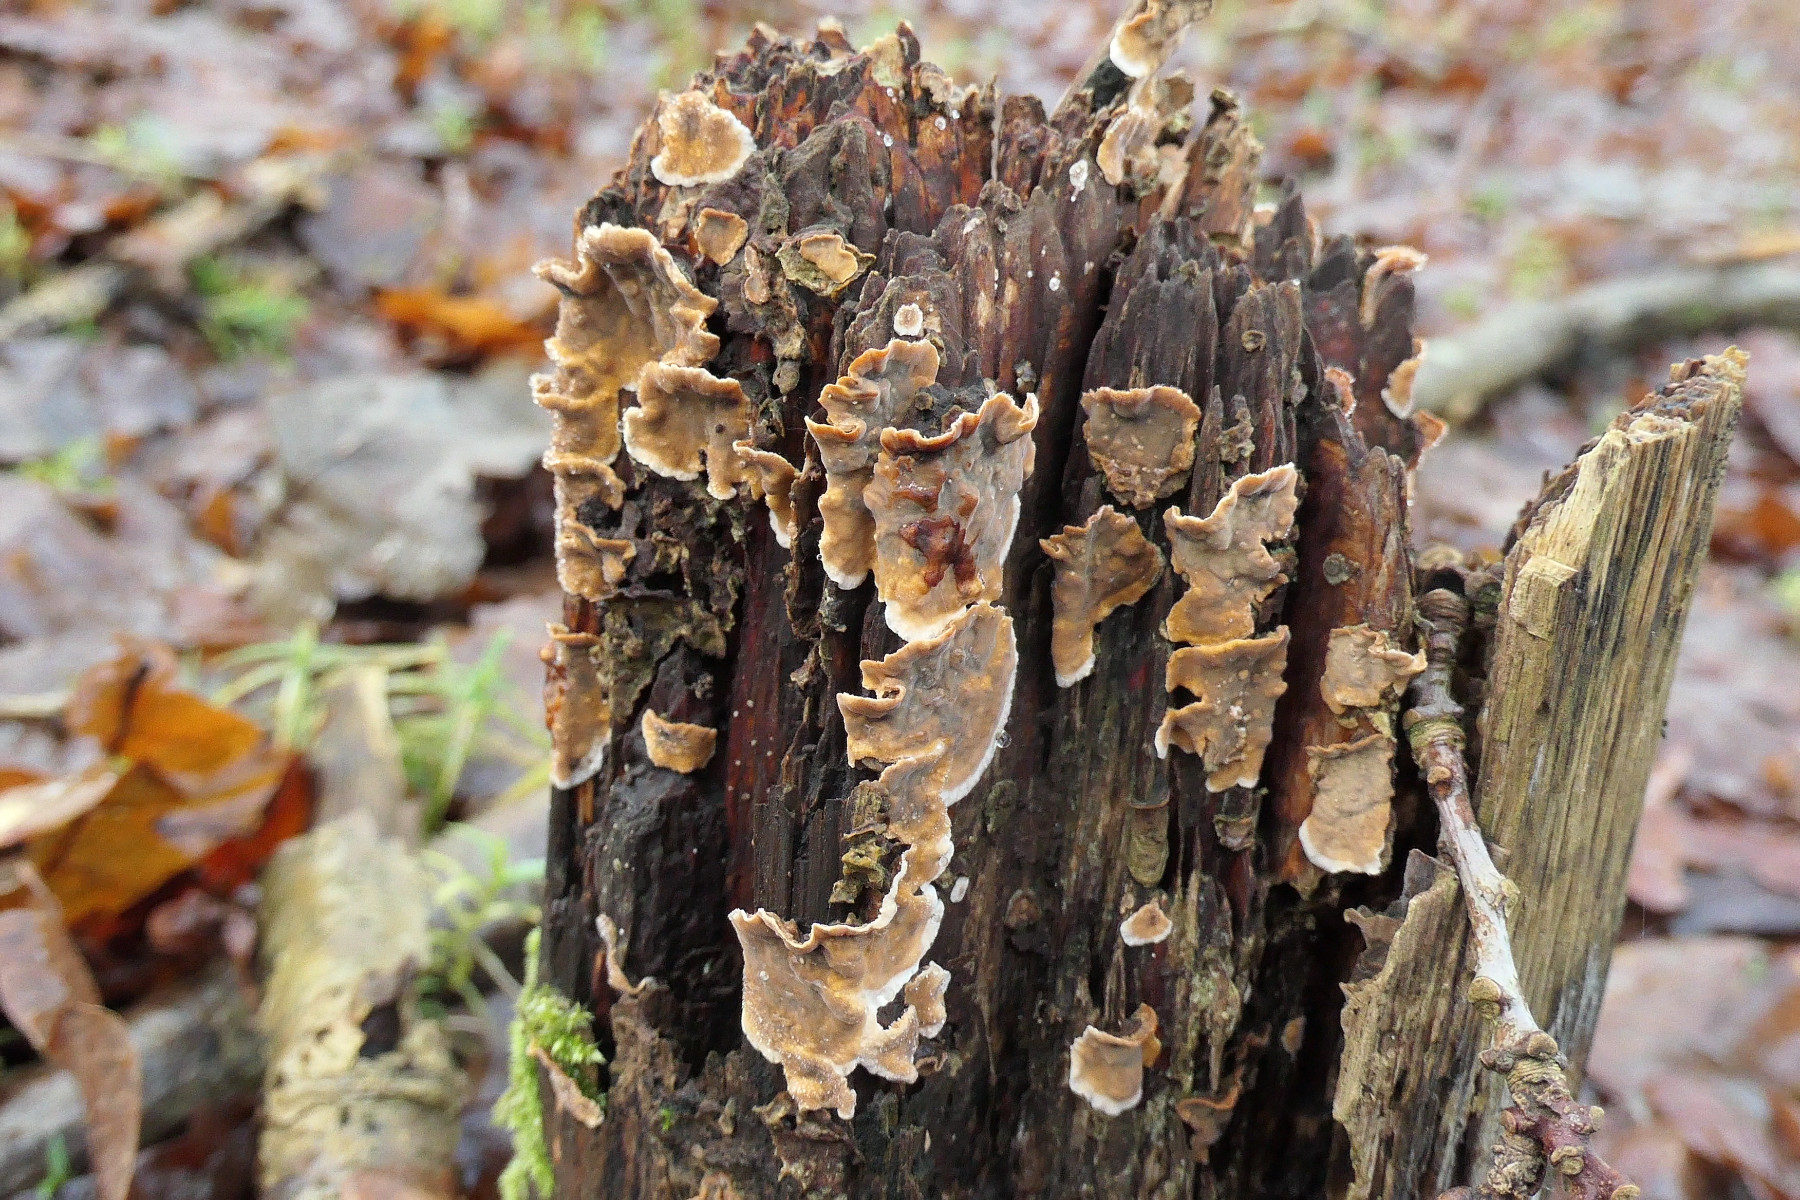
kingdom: Fungi
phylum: Basidiomycota
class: Agaricomycetes
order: Russulales
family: Stereaceae
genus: Stereum
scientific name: Stereum sanguinolentum
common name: blødende lædersvamp
